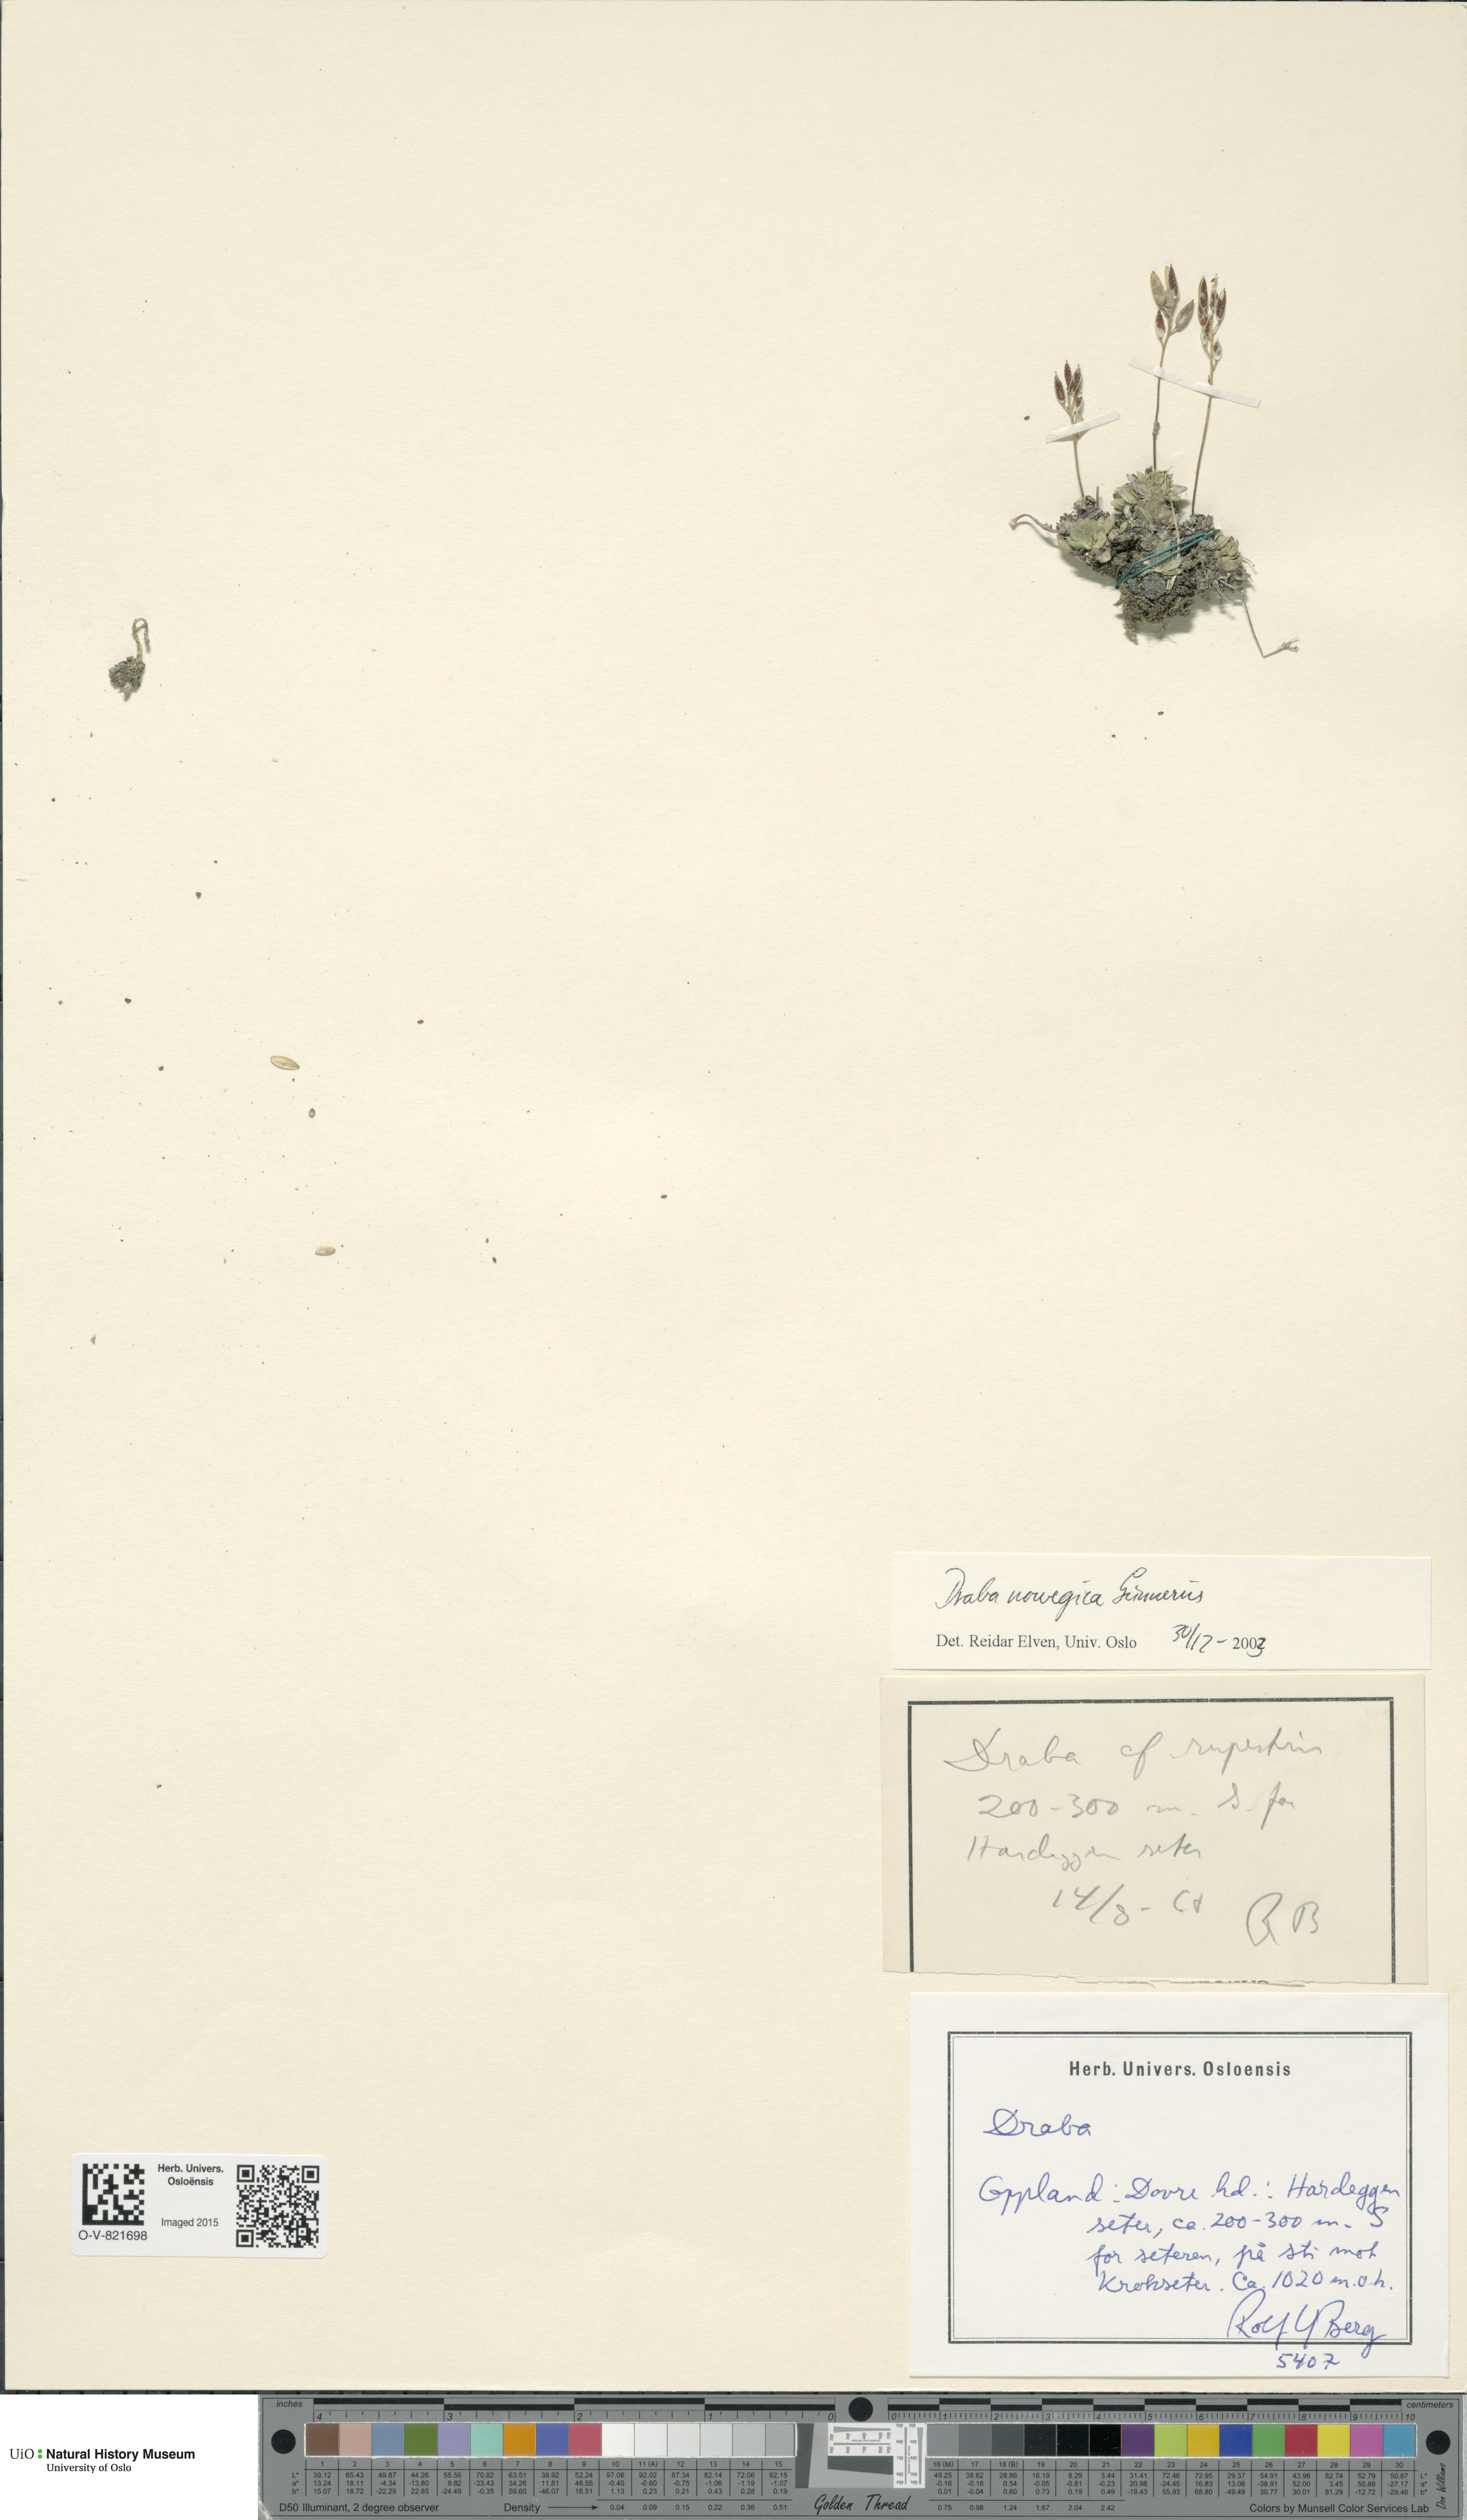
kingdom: Plantae
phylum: Tracheophyta
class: Magnoliopsida
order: Brassicales
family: Brassicaceae
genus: Draba
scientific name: Draba norvegica
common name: Rock whitlowgrass
